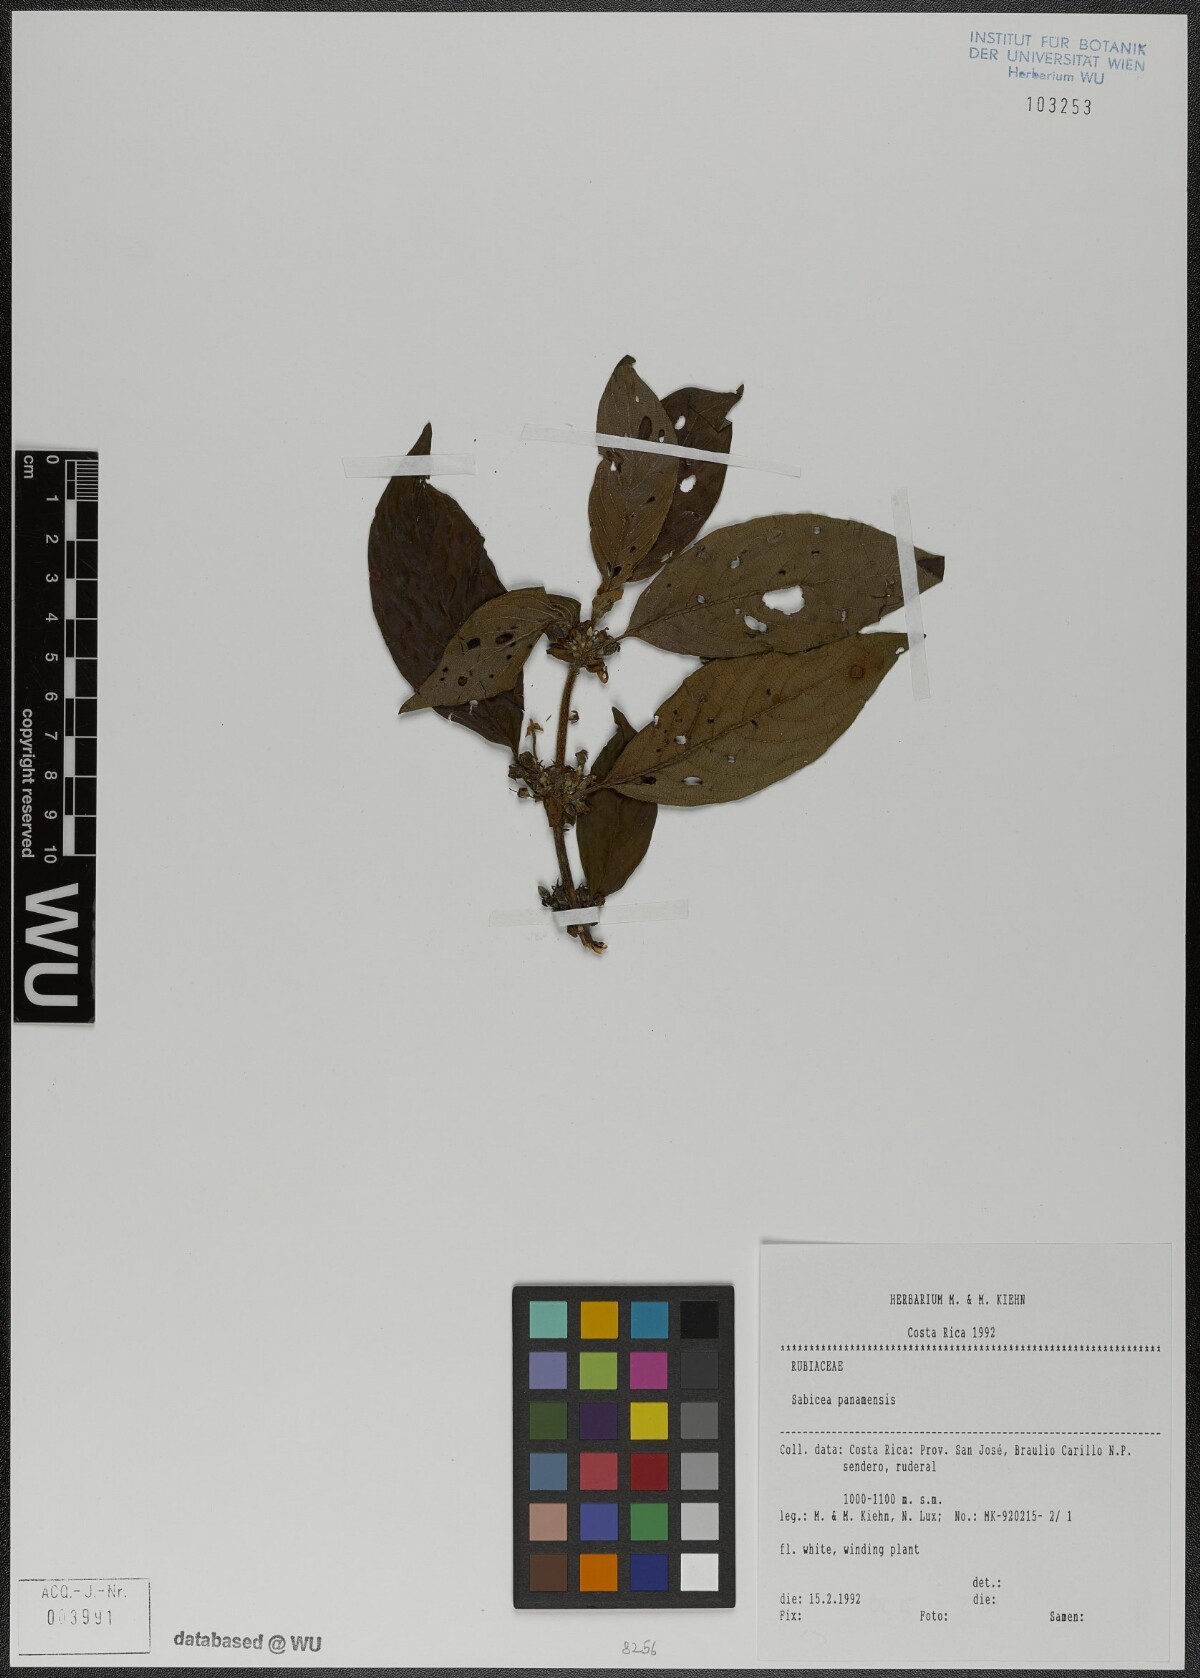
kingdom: Plantae
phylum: Tracheophyta
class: Magnoliopsida
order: Gentianales
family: Rubiaceae
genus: Sabicea
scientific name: Sabicea panamensis
